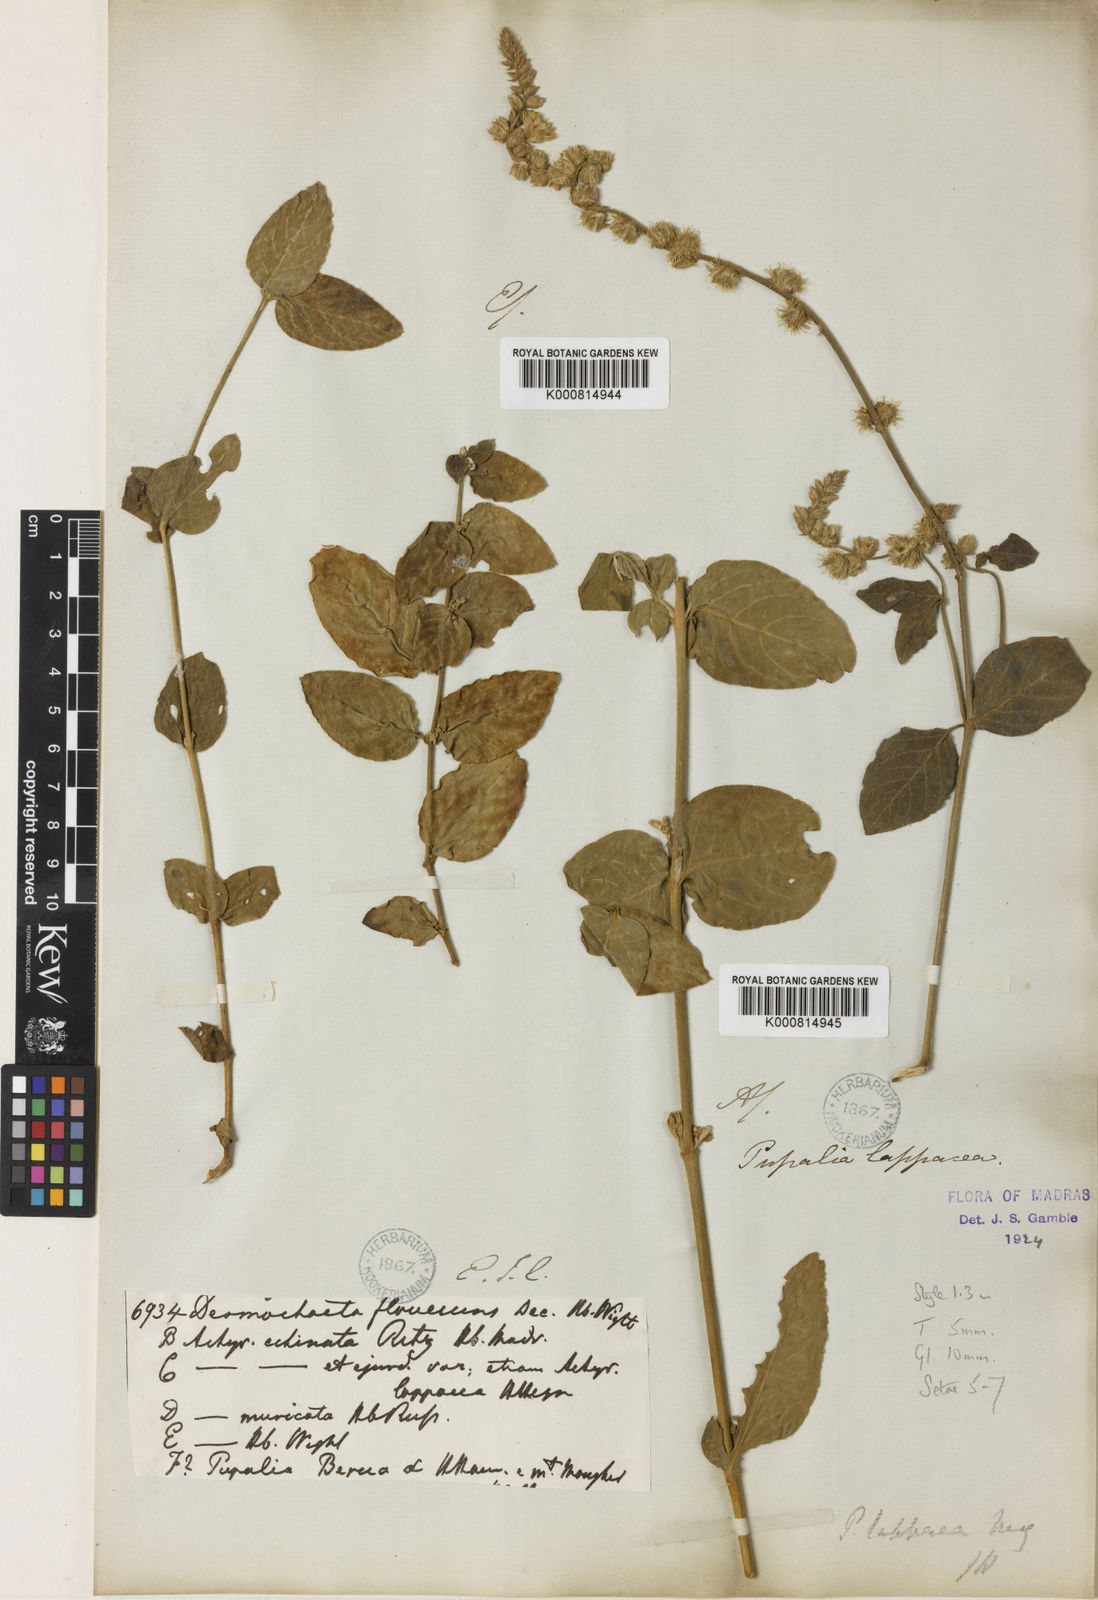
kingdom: Plantae
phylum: Tracheophyta
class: Magnoliopsida
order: Caryophyllales
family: Amaranthaceae
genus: Pupalia
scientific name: Pupalia lappacea
